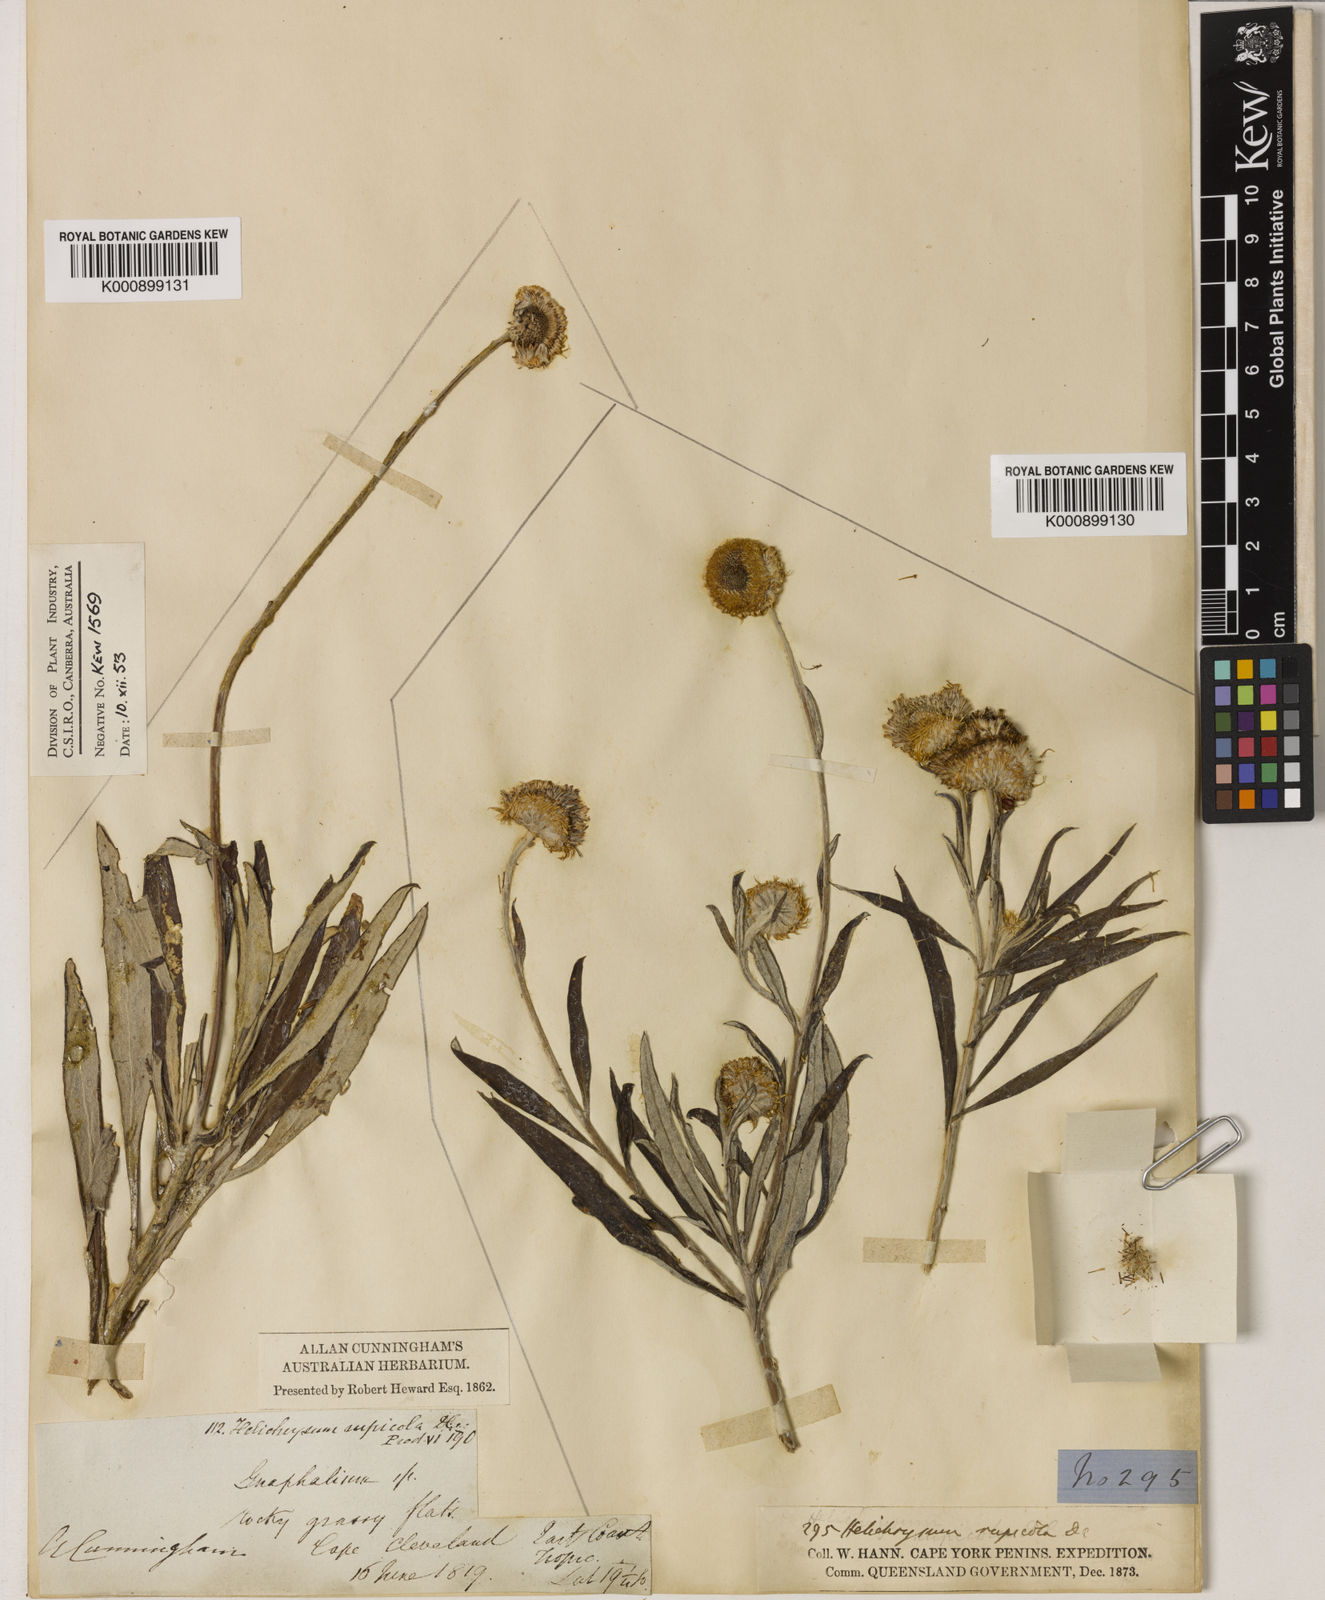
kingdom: Plantae
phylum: Tracheophyta
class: Magnoliopsida
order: Asterales
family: Asteraceae
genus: Coronidium
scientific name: Coronidium rupicola
